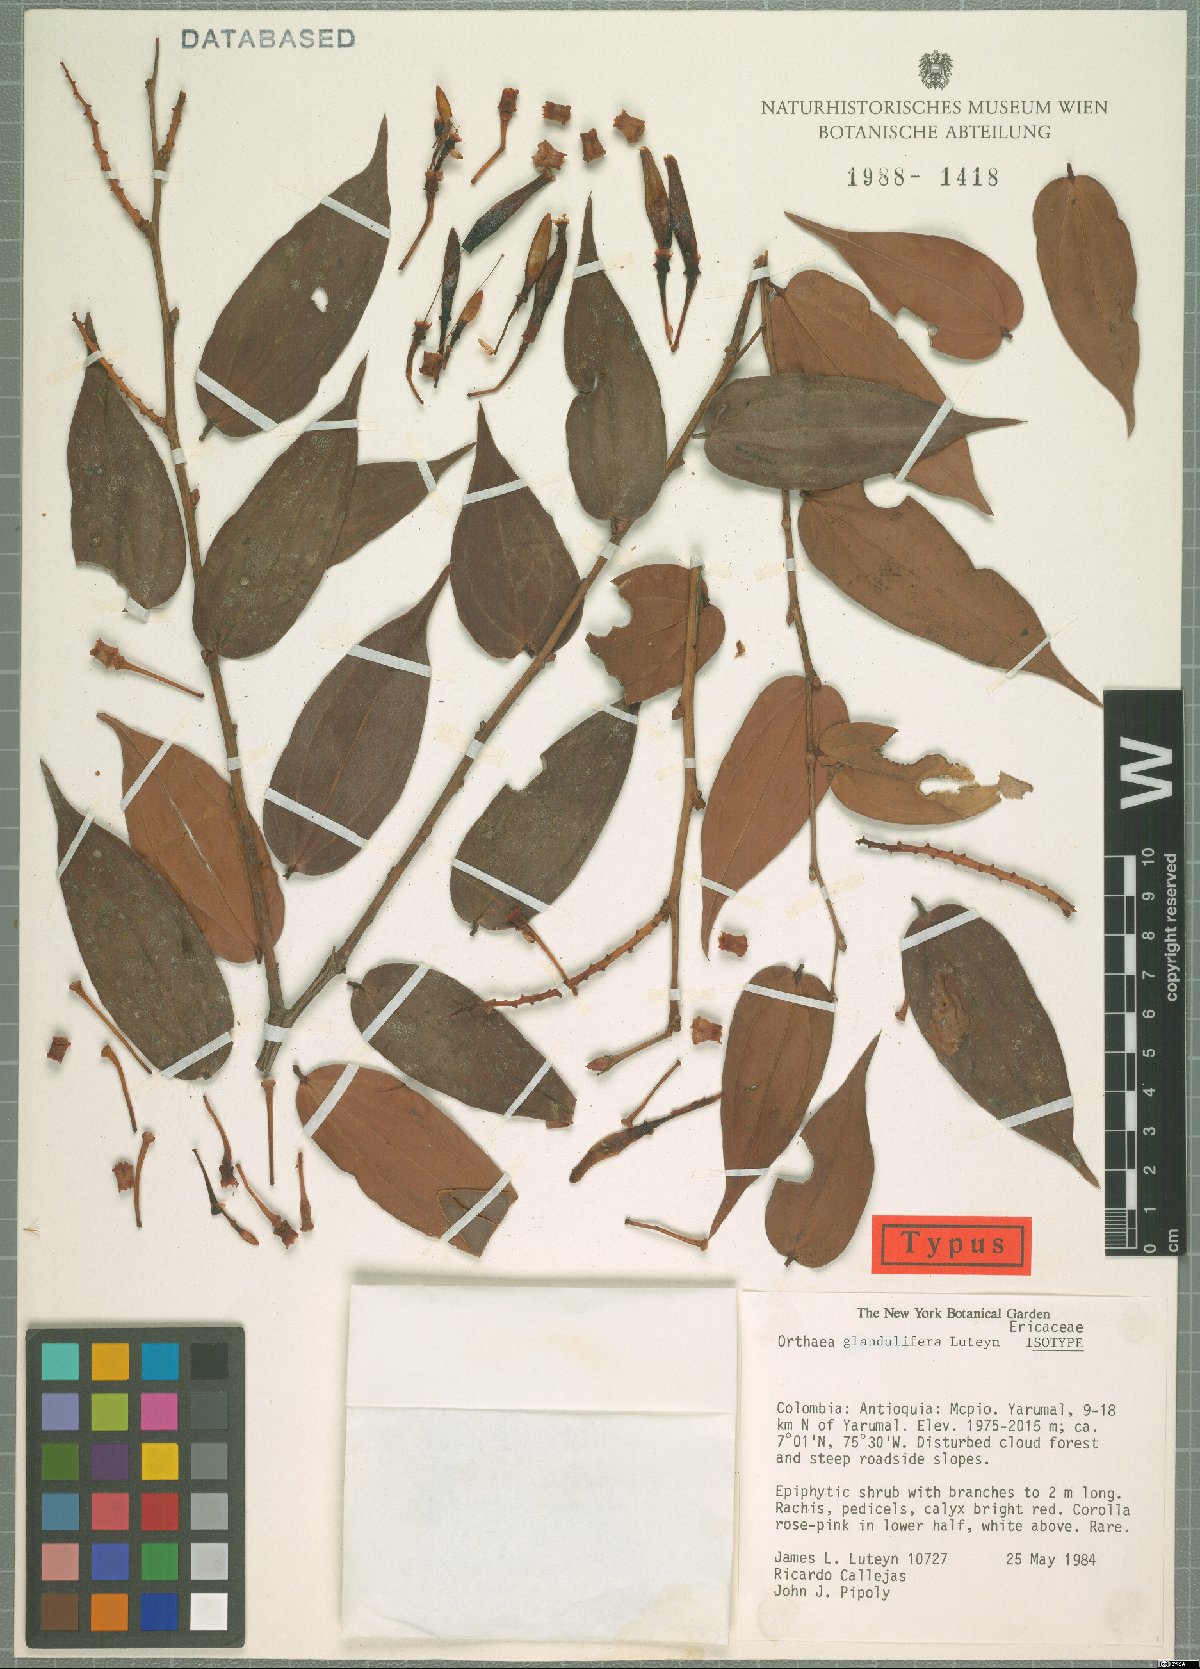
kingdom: Plantae
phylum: Tracheophyta
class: Magnoliopsida
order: Ericales
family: Ericaceae
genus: Orthaea
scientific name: Orthaea glandulifera
